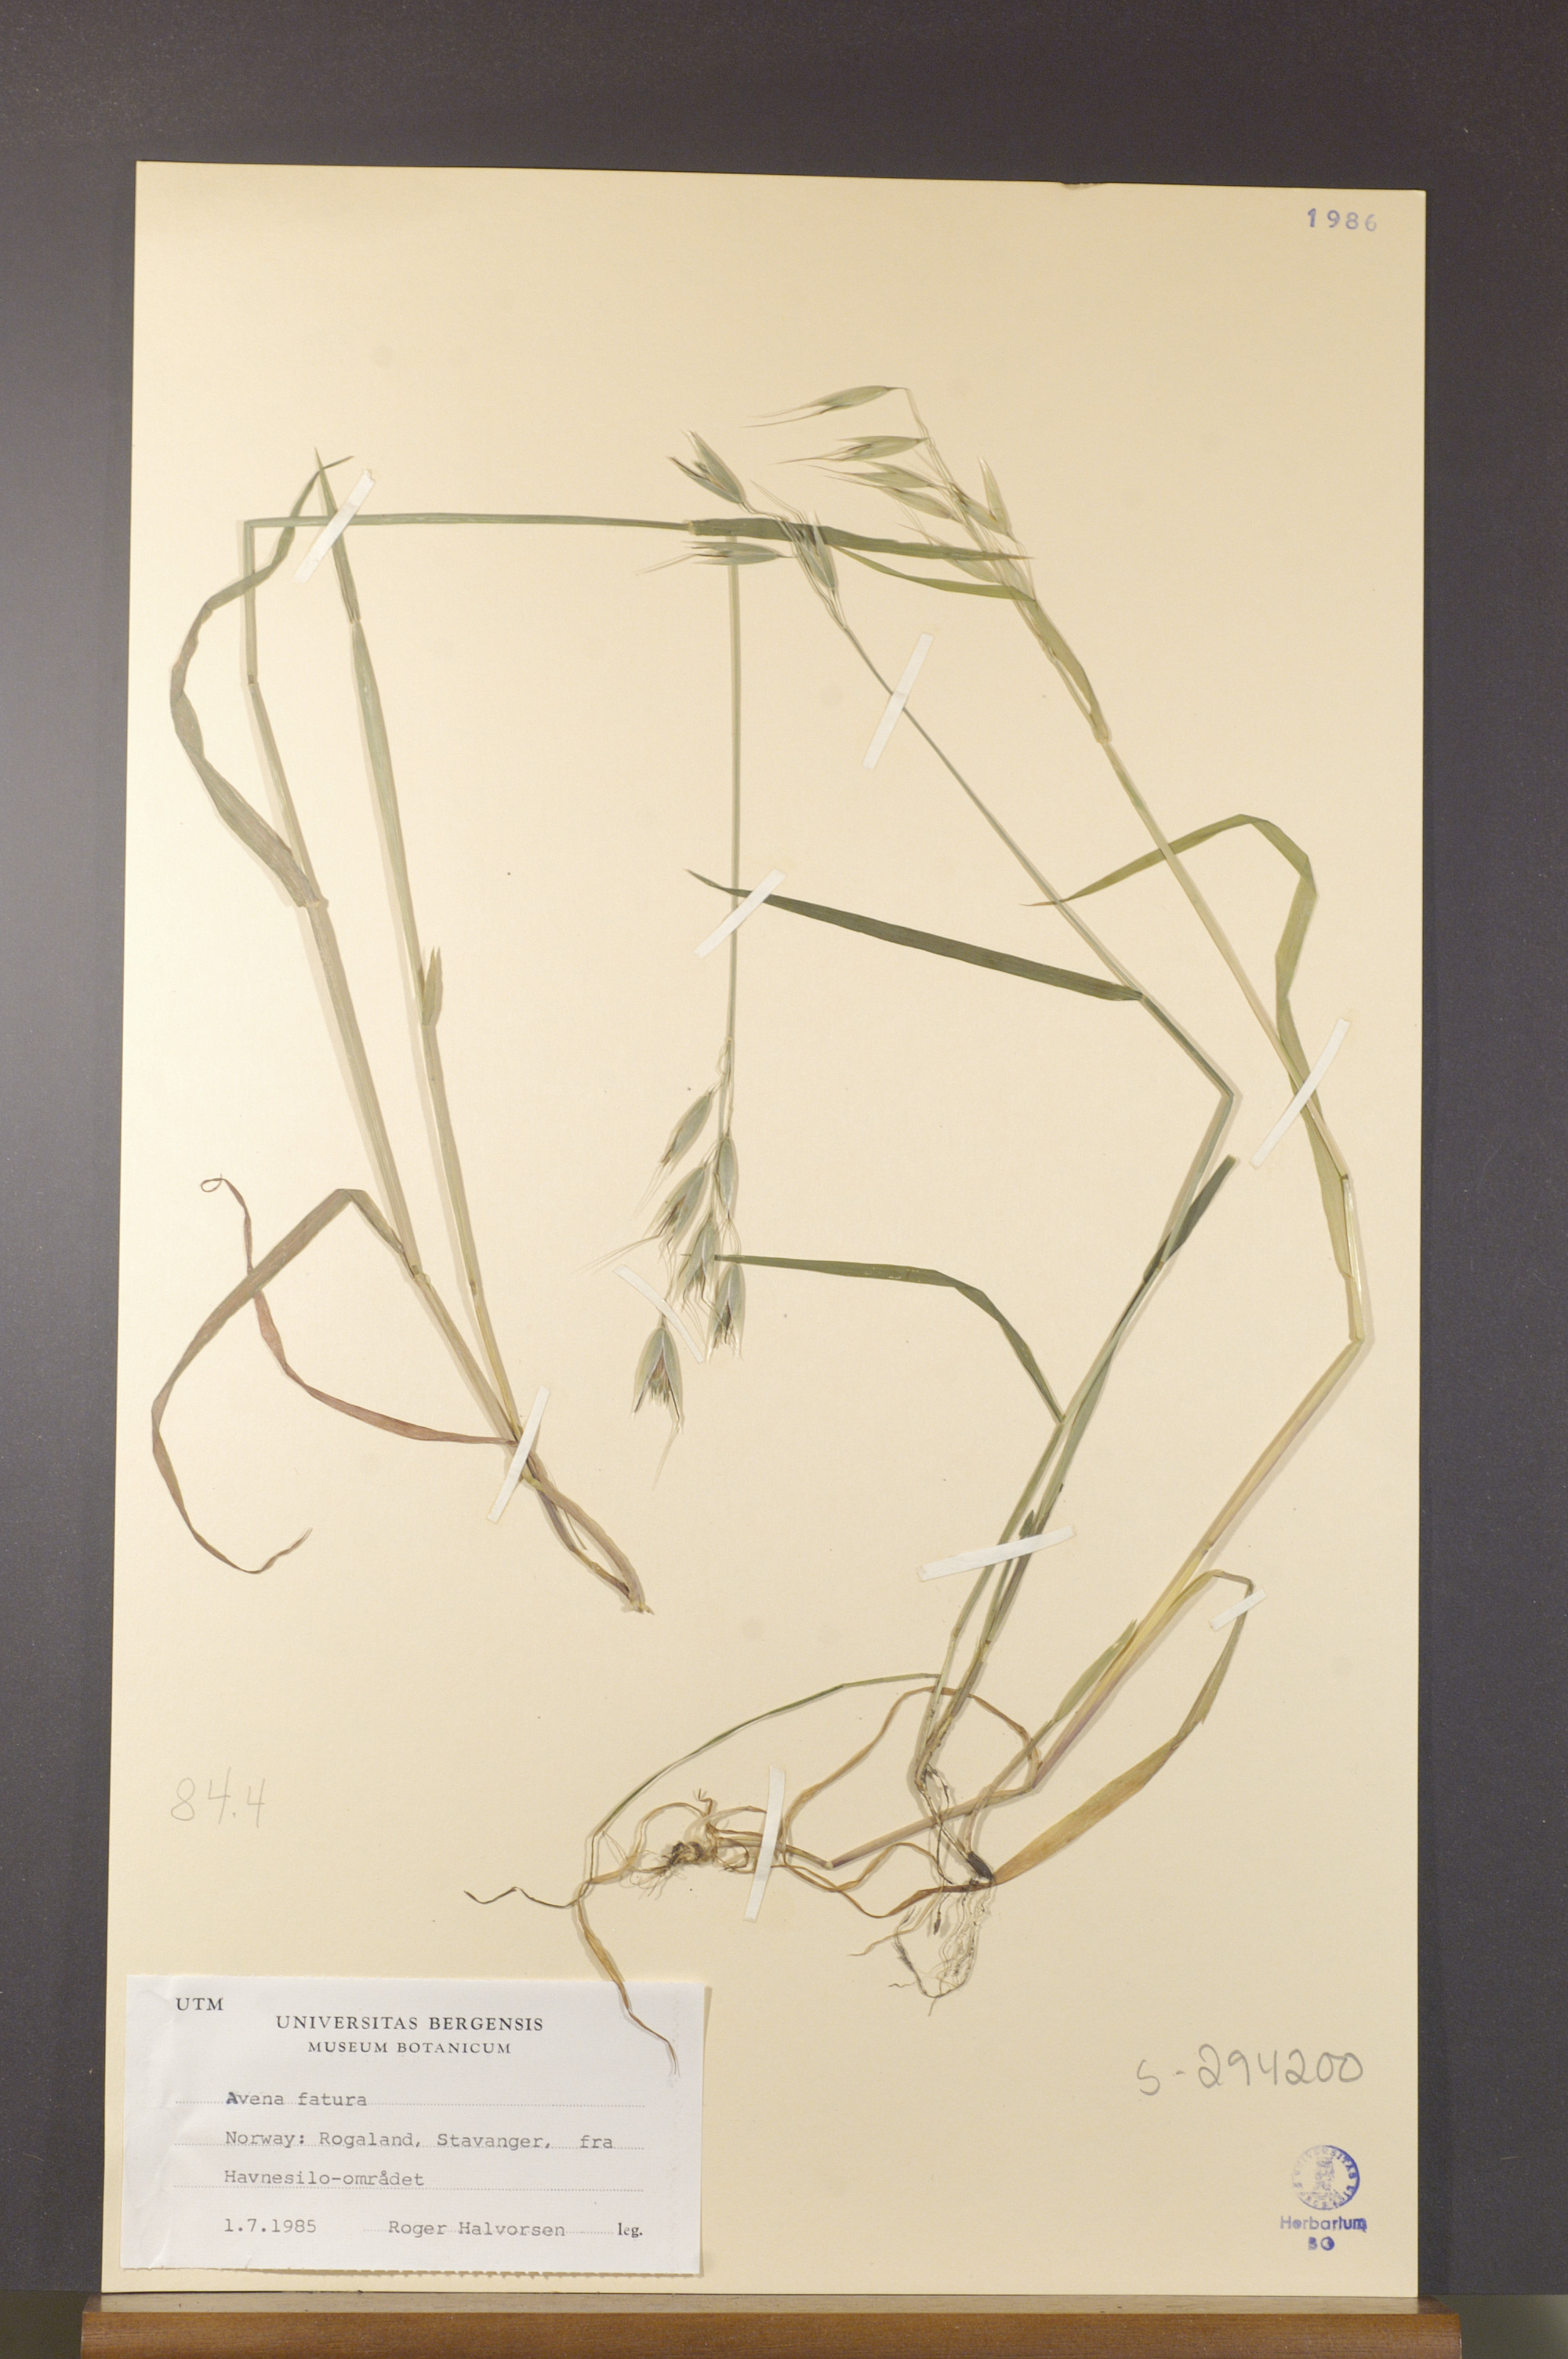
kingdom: Plantae
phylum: Tracheophyta
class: Liliopsida
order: Poales
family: Poaceae
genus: Avena
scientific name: Avena fatua
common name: Wild oat
